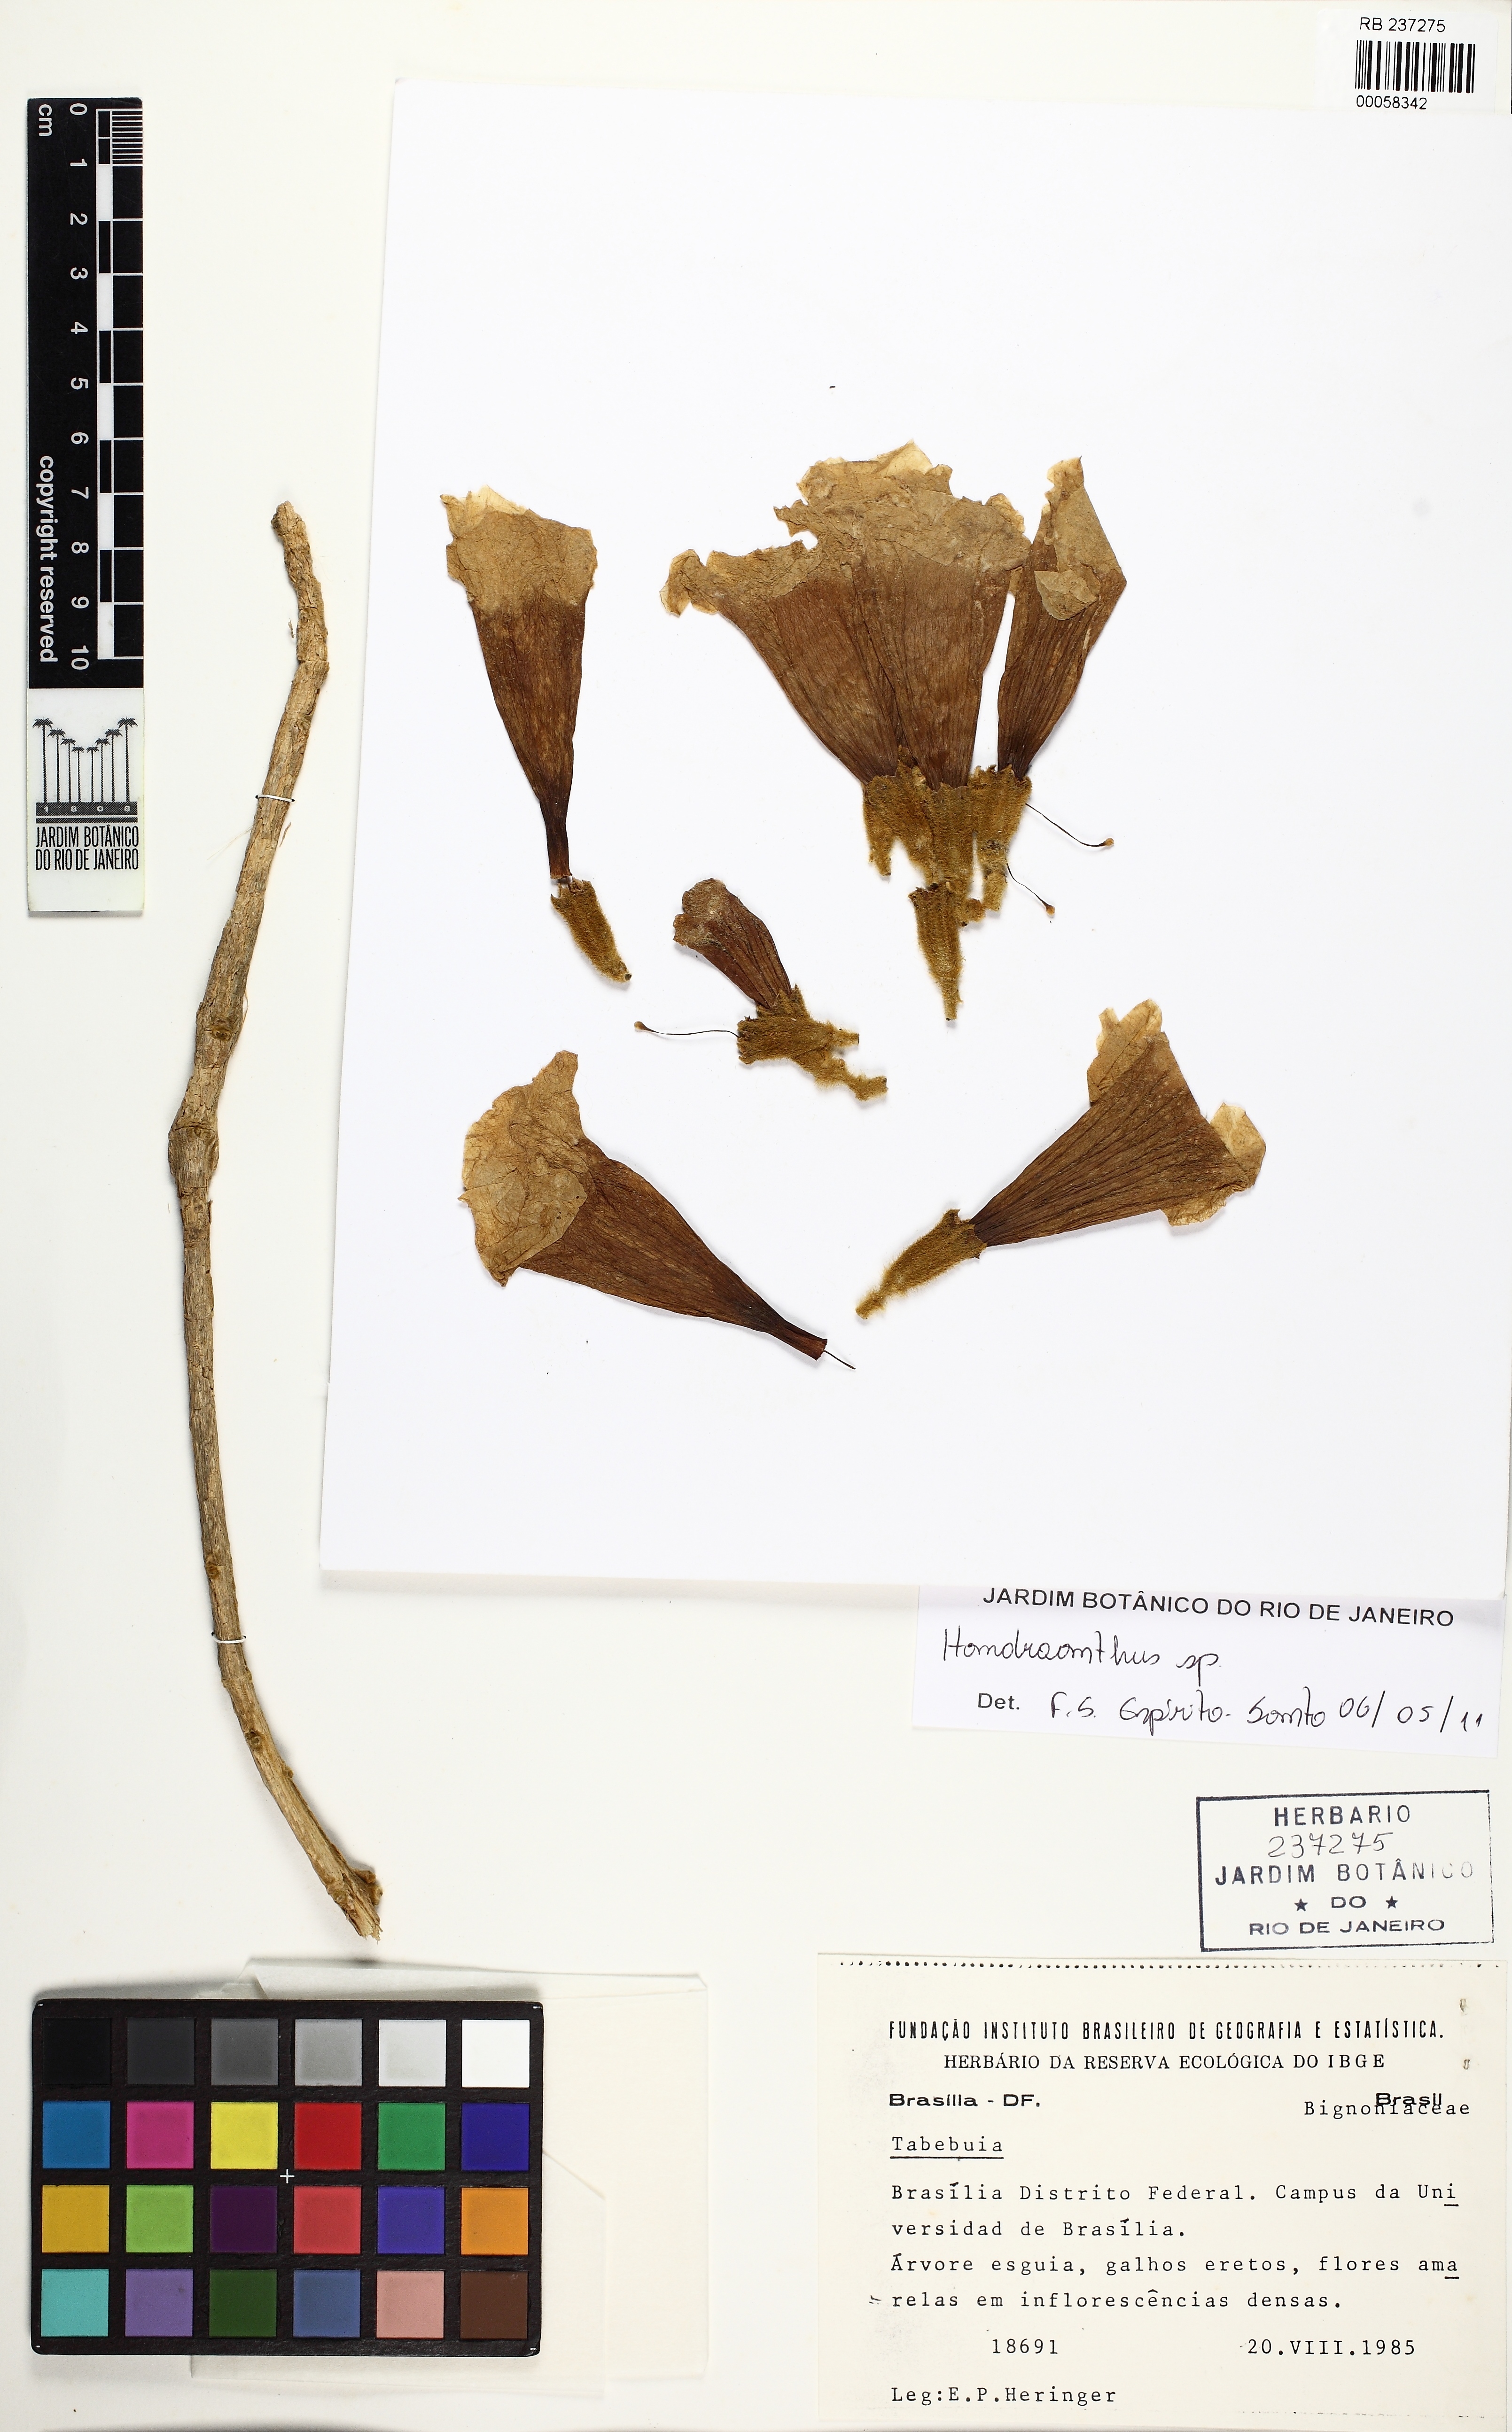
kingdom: Plantae
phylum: Tracheophyta
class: Magnoliopsida
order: Lamiales
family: Bignoniaceae
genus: Handroanthus
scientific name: Handroanthus
